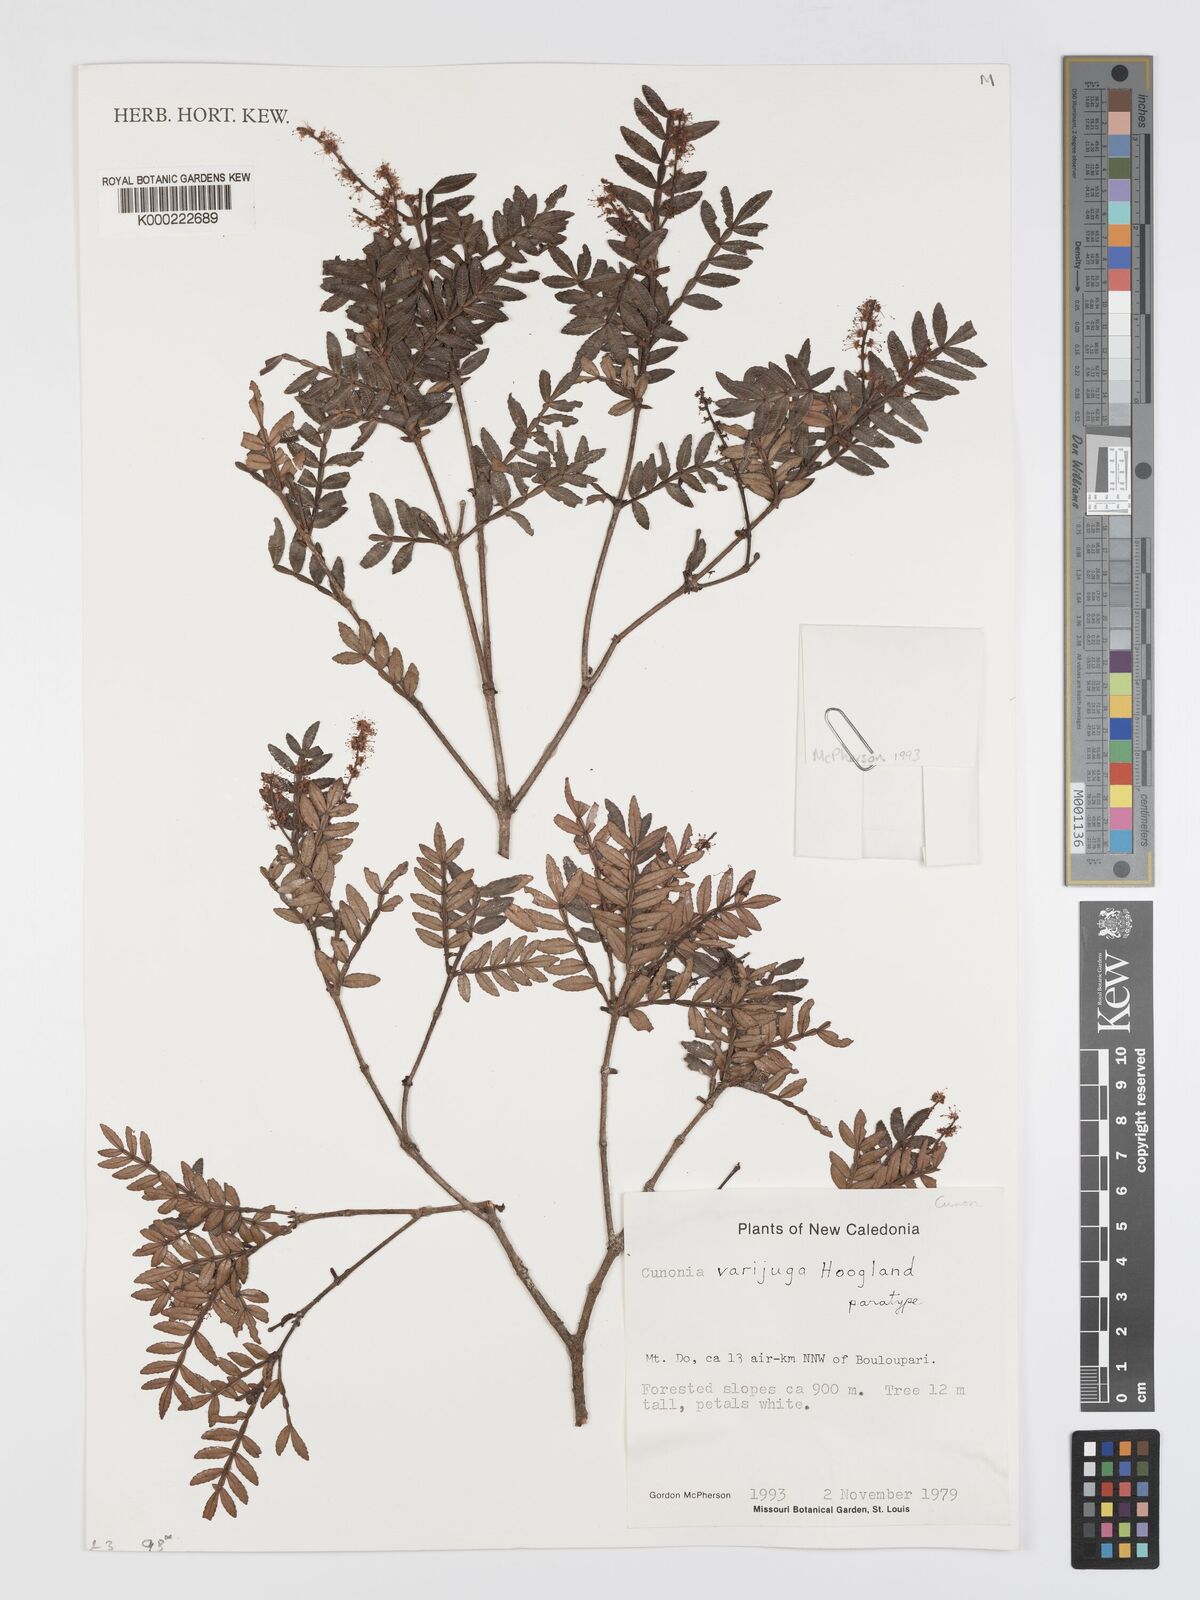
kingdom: Plantae
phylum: Tracheophyta
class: Magnoliopsida
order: Oxalidales
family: Cunoniaceae
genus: Cunonia
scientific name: Cunonia varijuga
